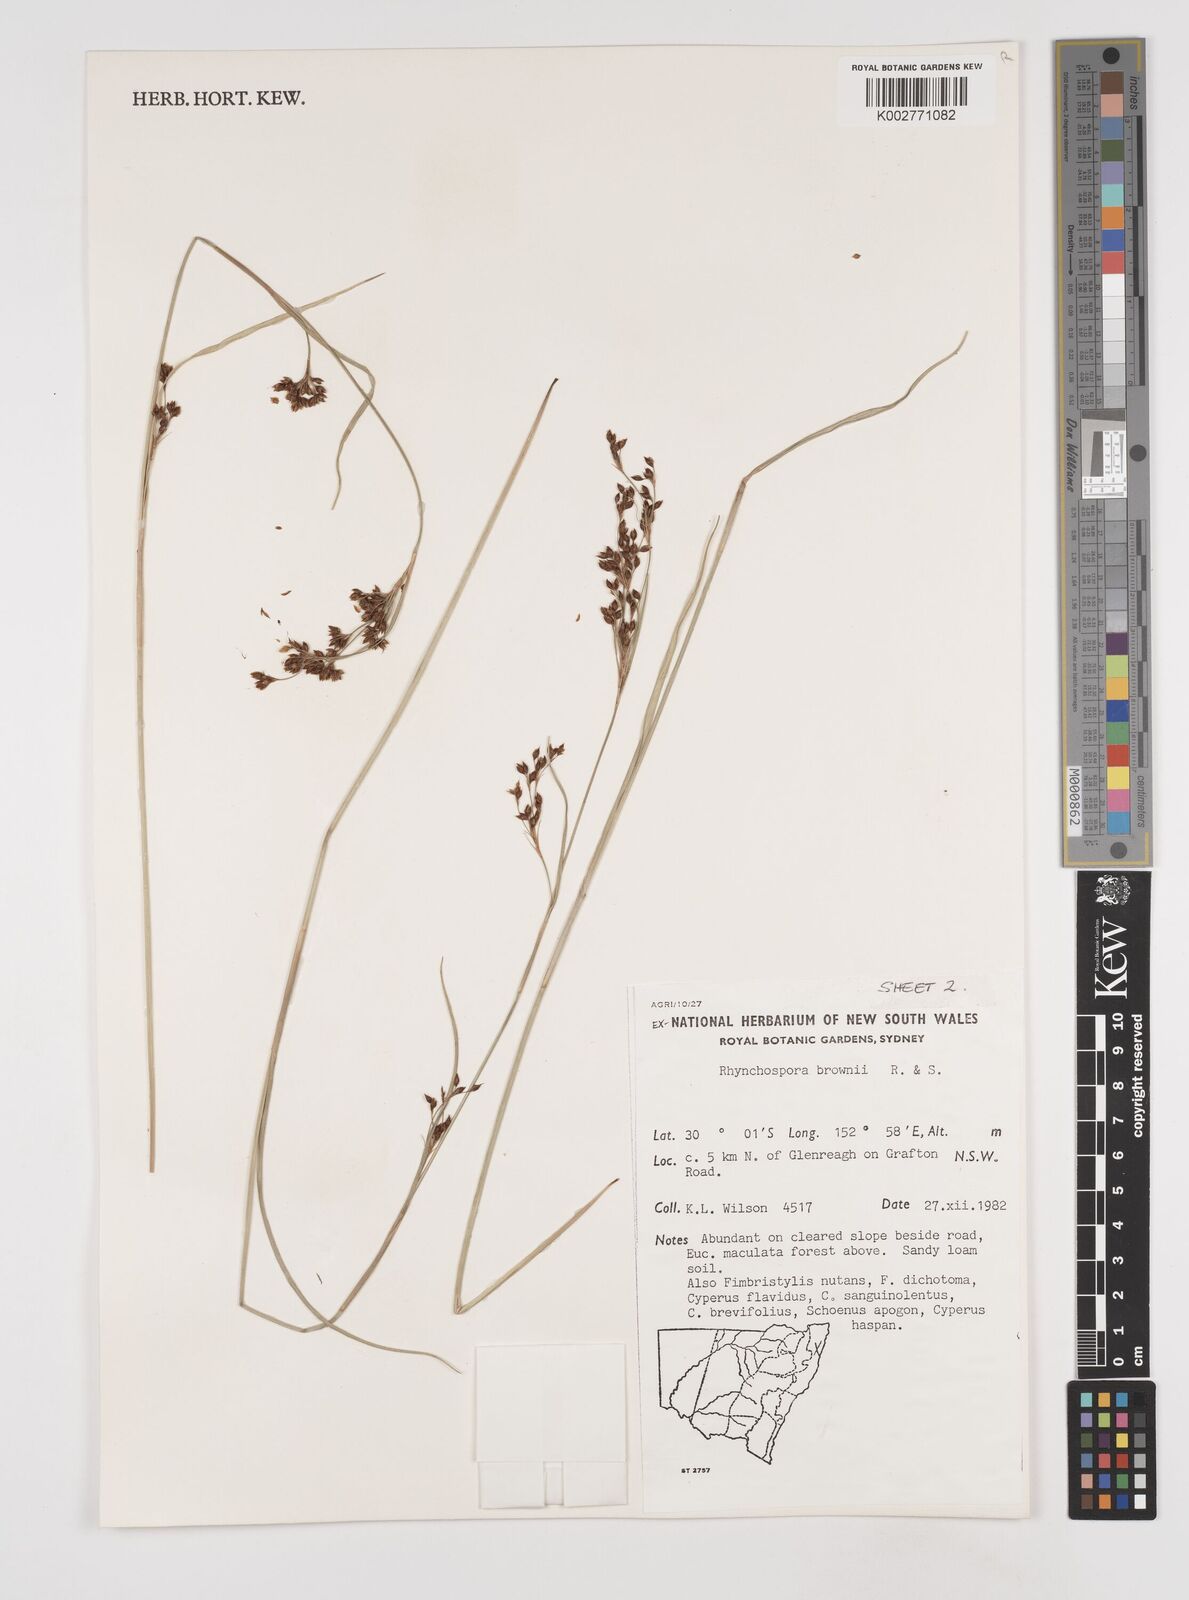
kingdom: Plantae
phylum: Tracheophyta
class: Liliopsida
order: Poales
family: Cyperaceae
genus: Rhynchospora
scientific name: Rhynchospora rugosa
